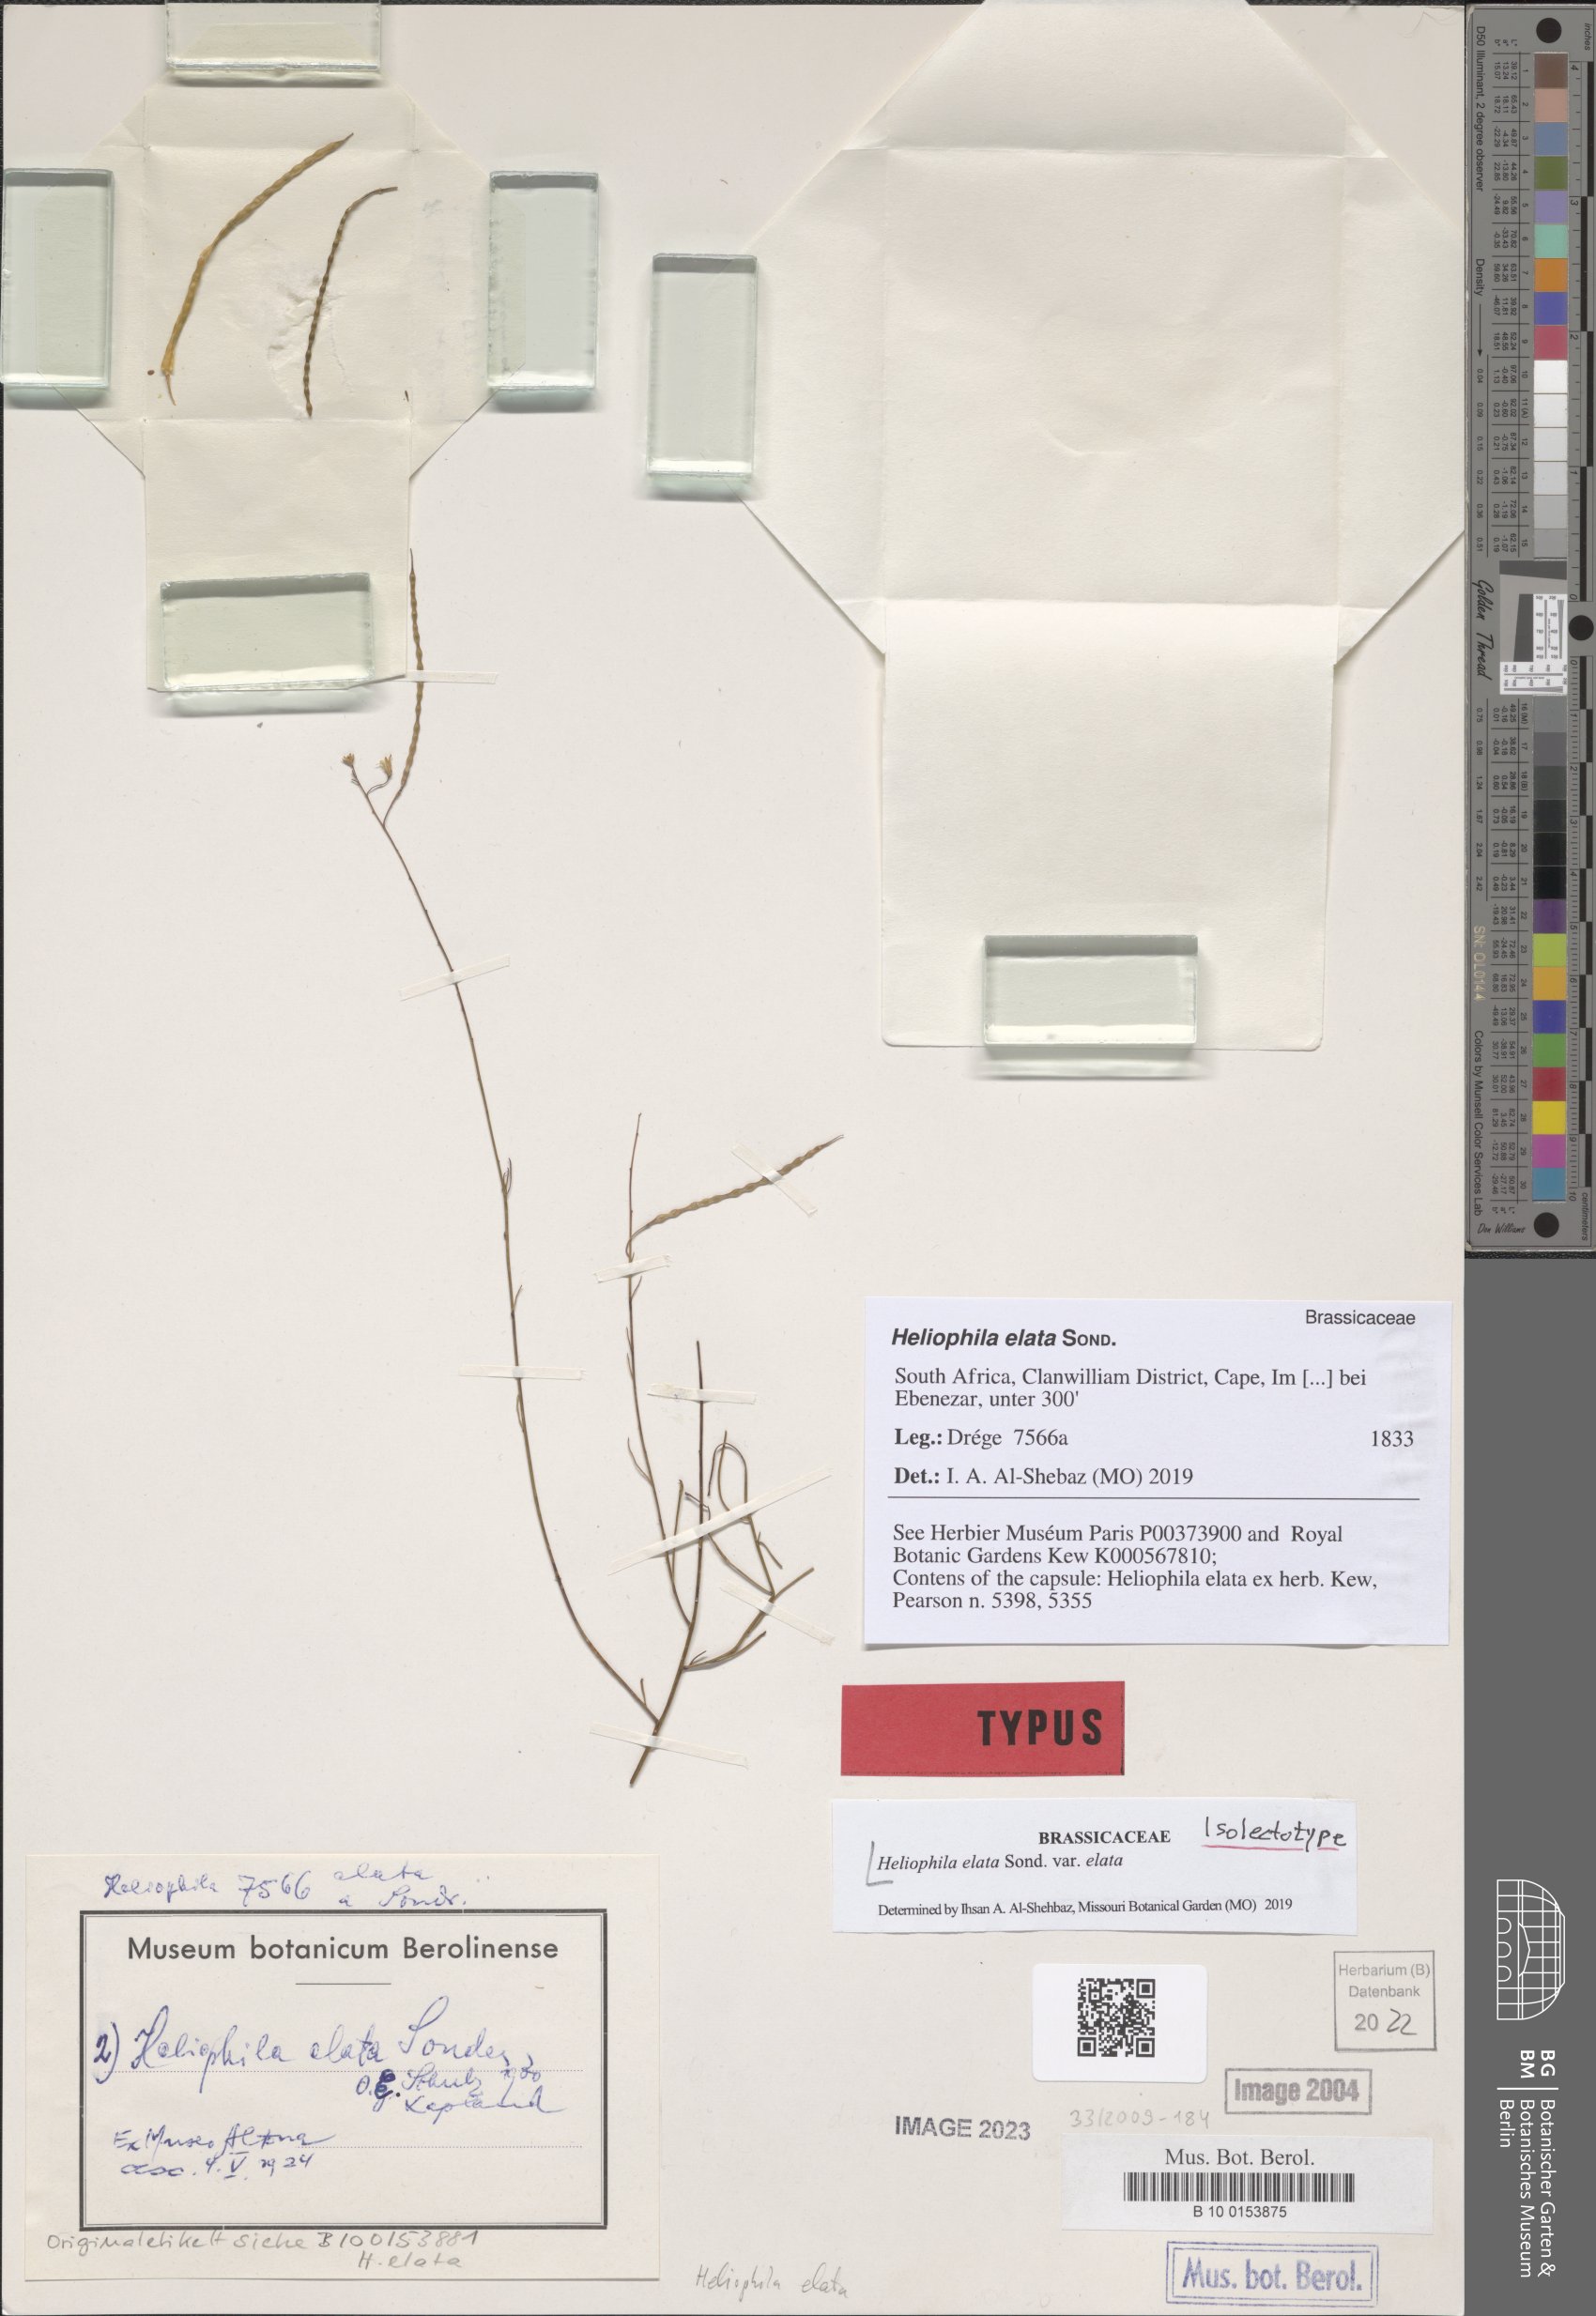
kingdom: Plantae
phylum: Tracheophyta
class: Magnoliopsida
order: Brassicales
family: Brassicaceae
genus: Heliophila
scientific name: Heliophila elata
